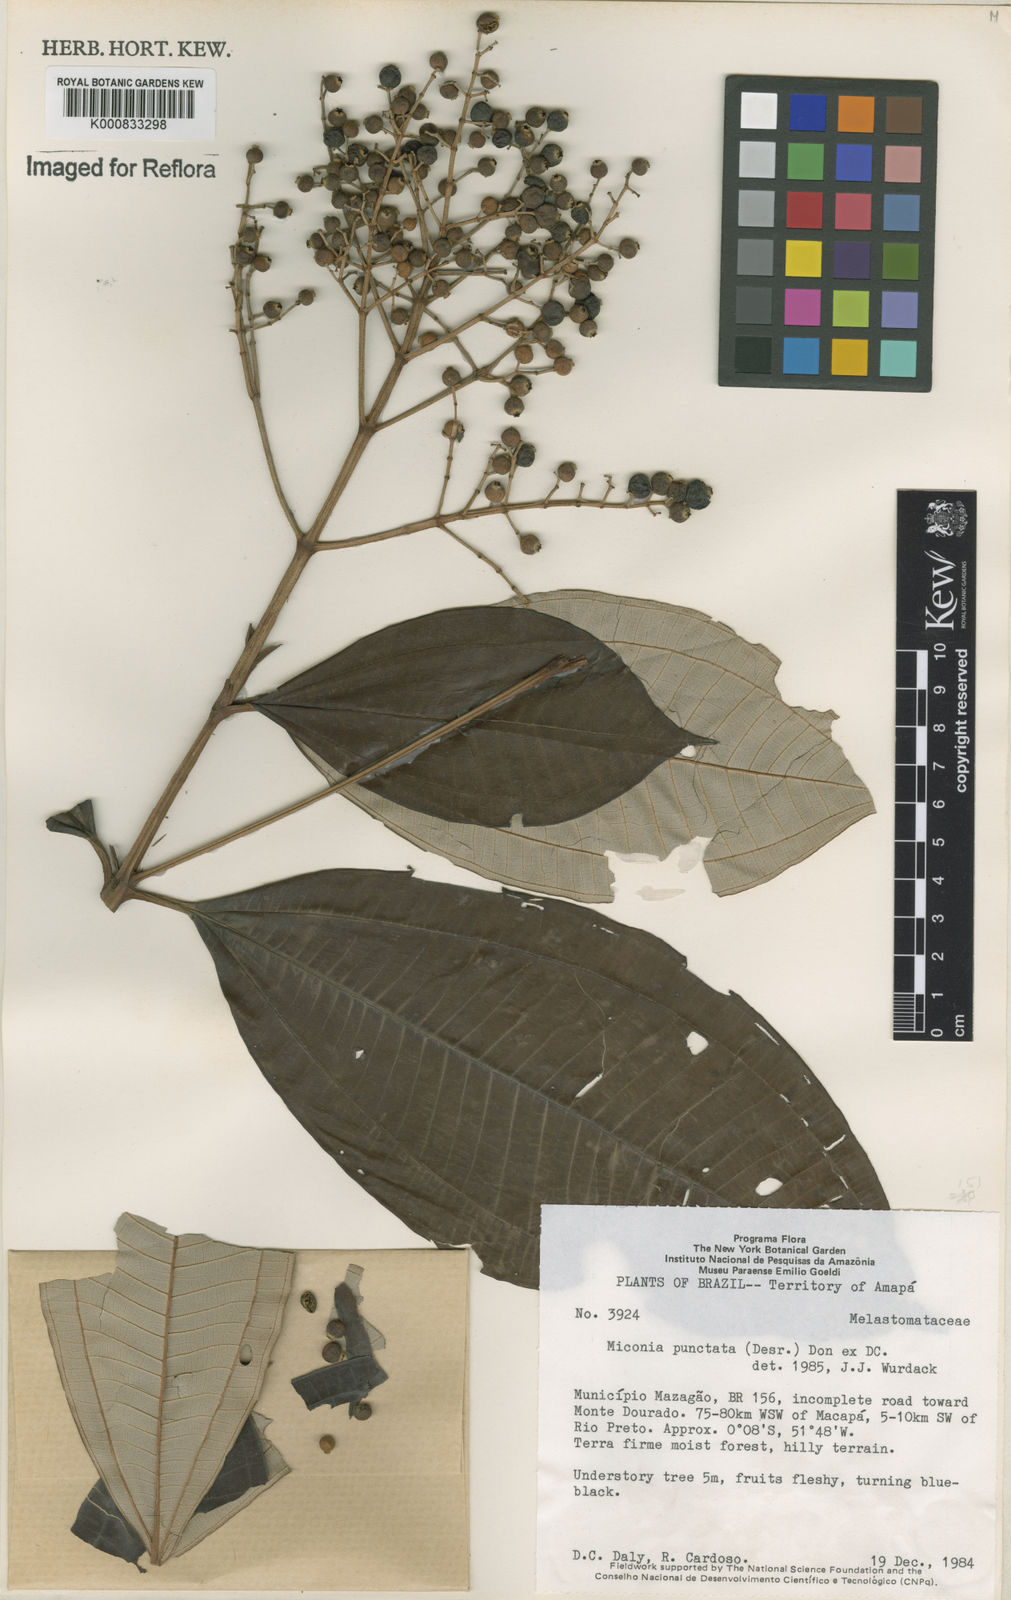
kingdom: Plantae
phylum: Tracheophyta
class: Magnoliopsida
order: Myrtales
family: Melastomataceae
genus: Miconia
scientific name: Miconia
